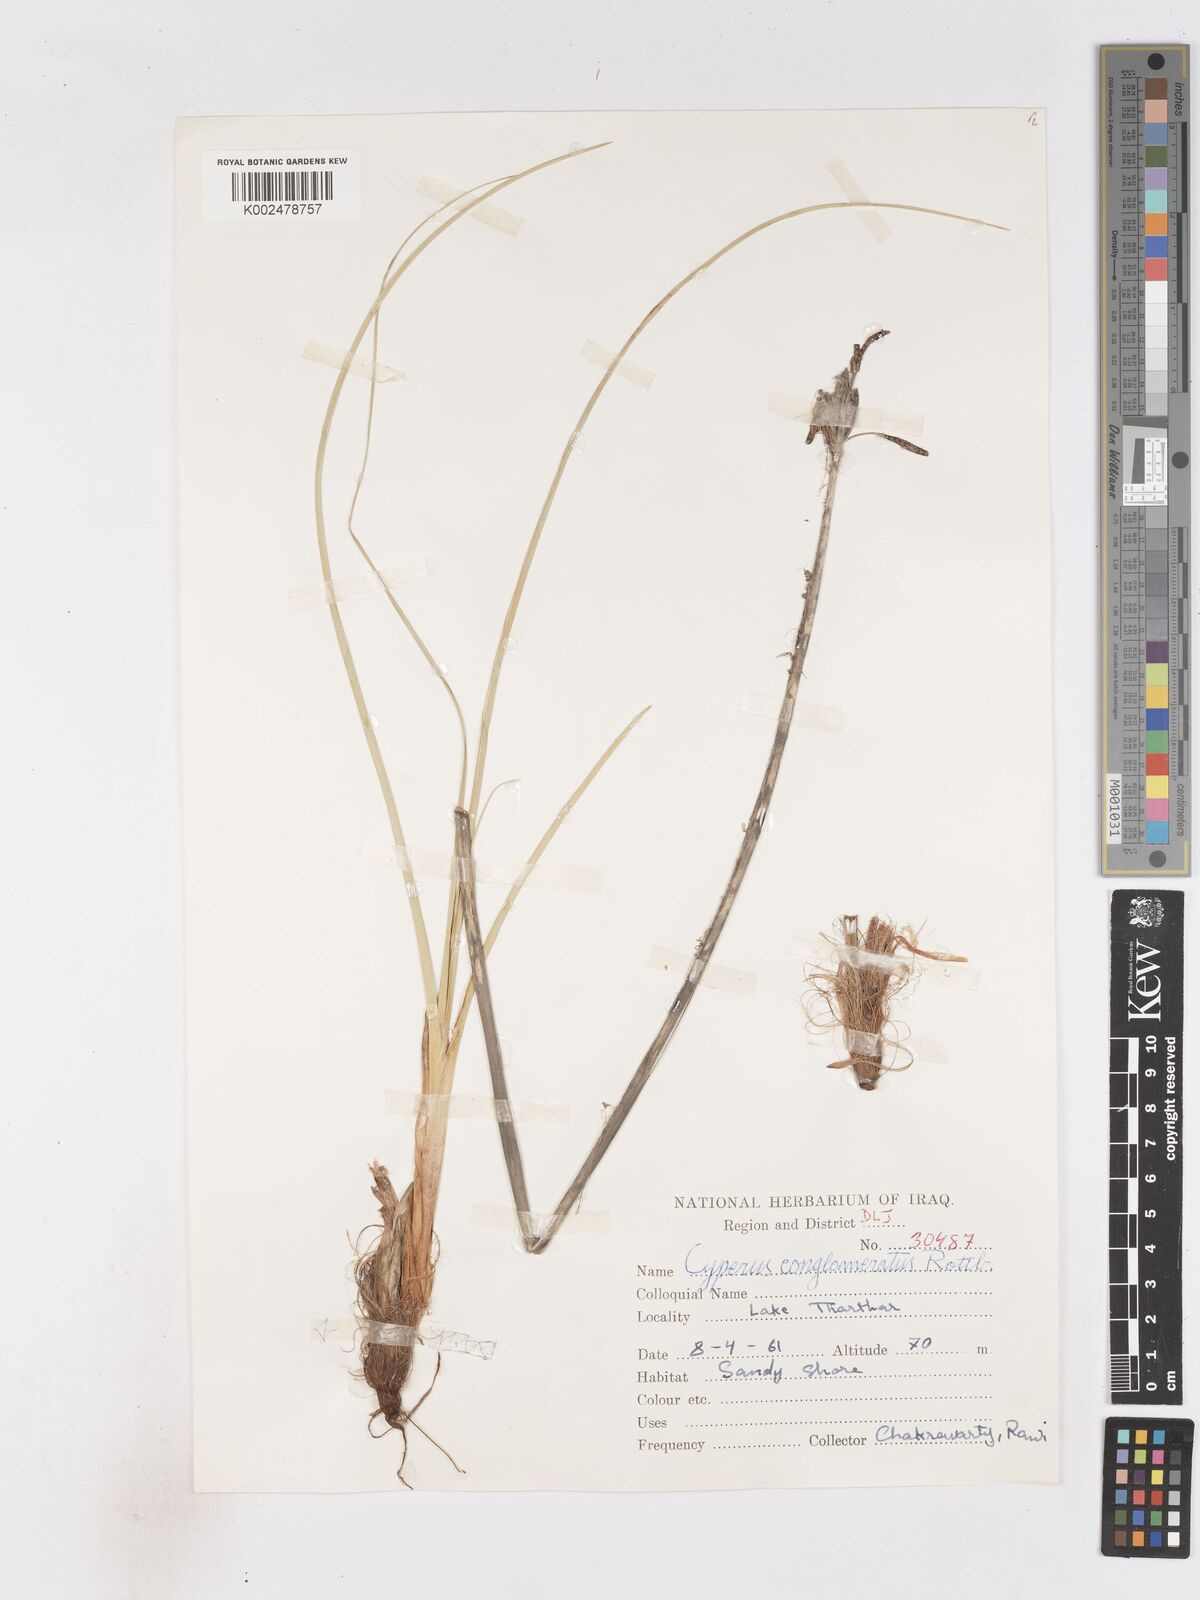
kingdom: Plantae
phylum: Tracheophyta
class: Liliopsida
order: Poales
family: Cyperaceae
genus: Cyperus
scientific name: Cyperus aucheri
